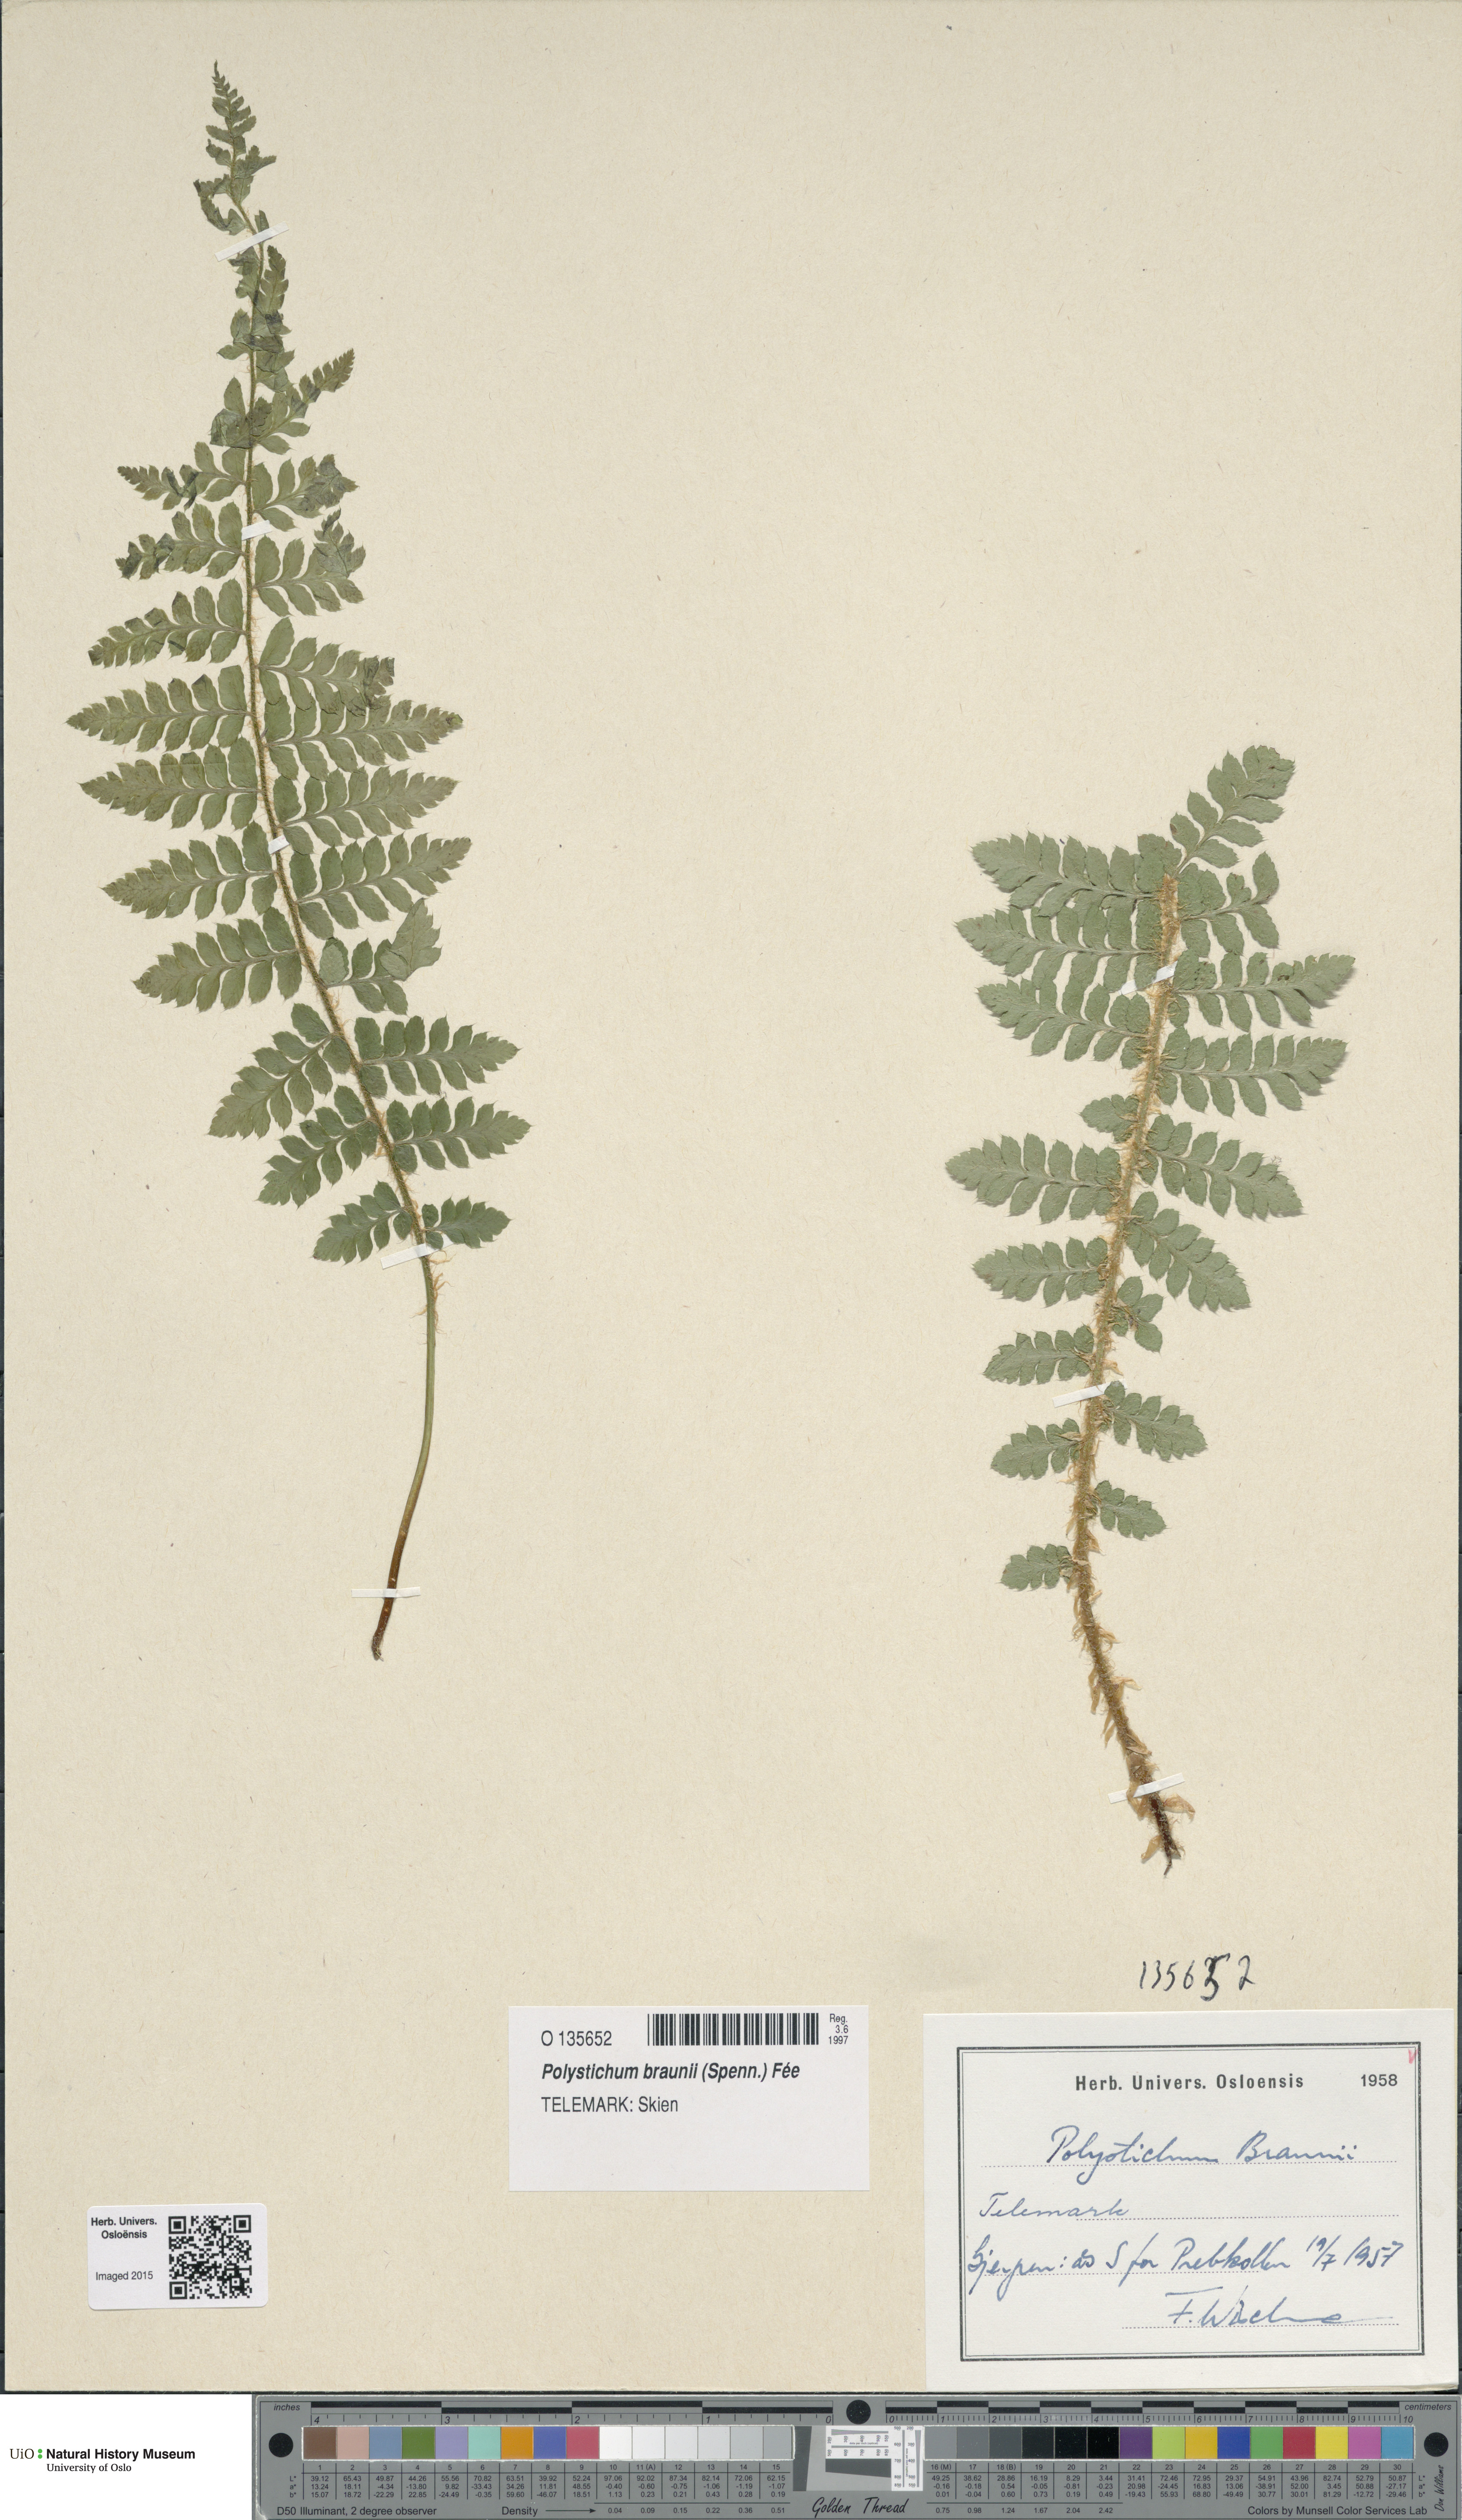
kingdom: Plantae
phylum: Tracheophyta
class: Polypodiopsida
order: Polypodiales
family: Dryopteridaceae
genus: Polystichum
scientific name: Polystichum braunii
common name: Braun's holly fern
